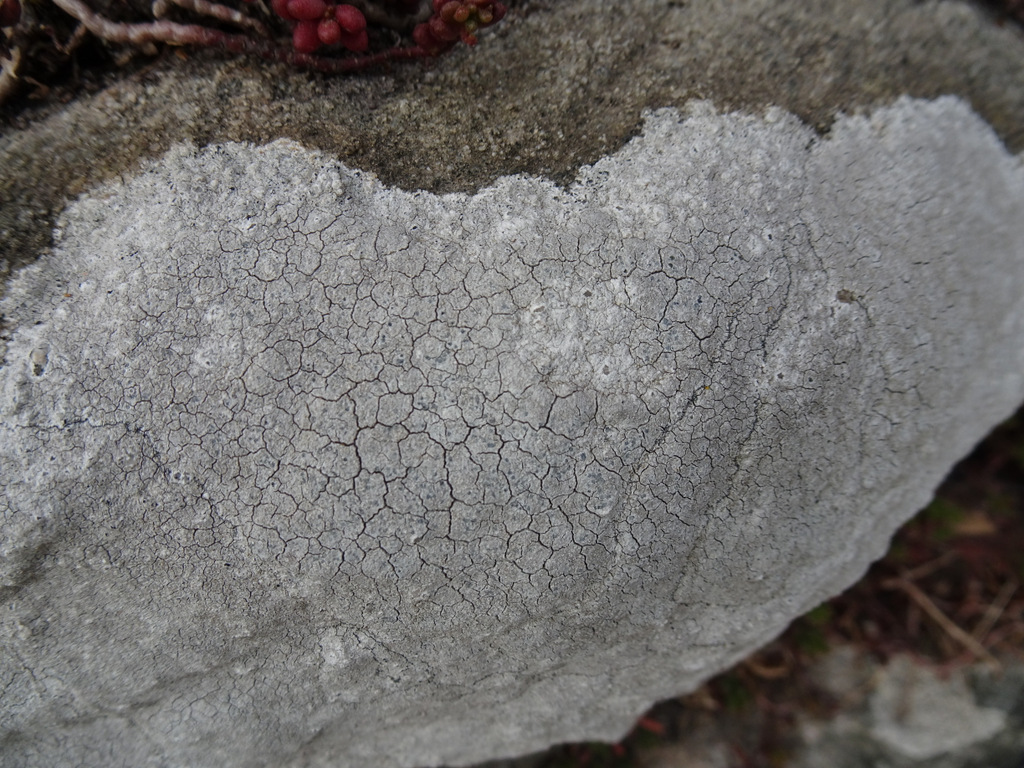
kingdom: Fungi
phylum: Ascomycota
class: Lecanoromycetes
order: Lecanorales
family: Lecanoraceae
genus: Glaucomaria
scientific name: Glaucomaria rupicola
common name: stengærde-kantskivelav
